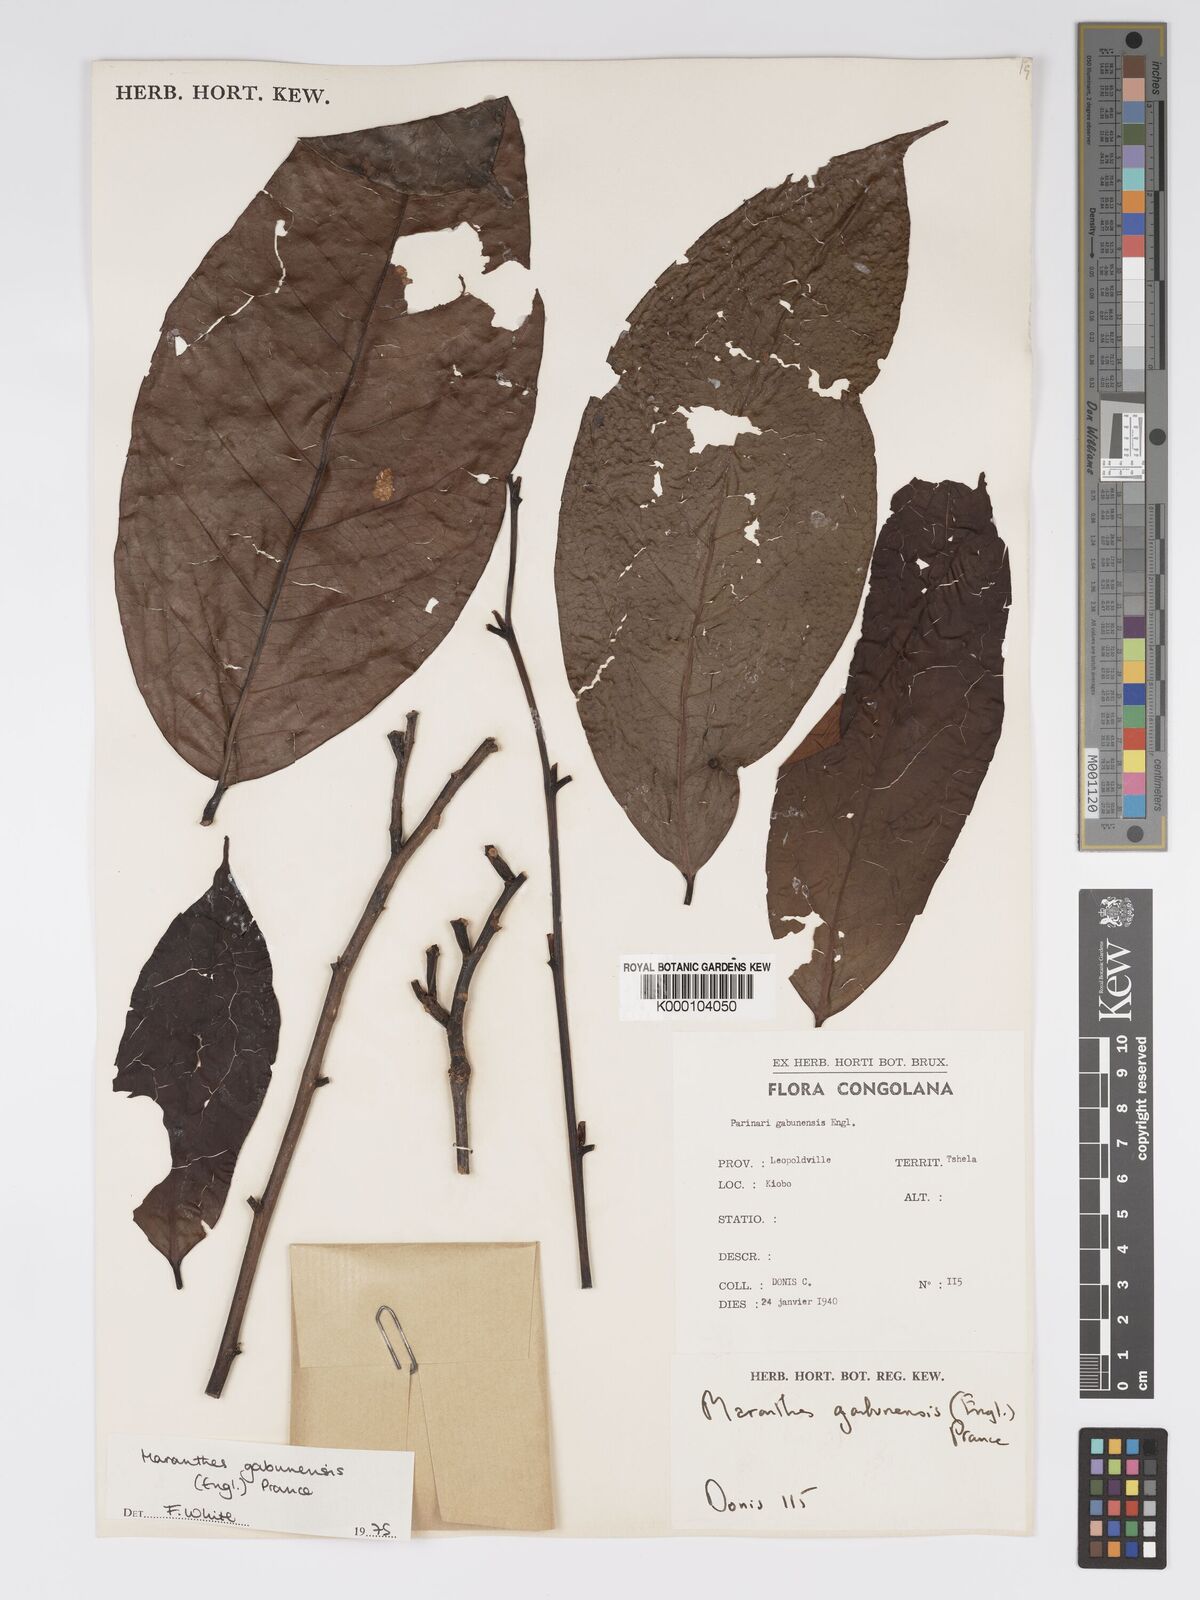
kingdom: Plantae
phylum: Tracheophyta
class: Magnoliopsida
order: Malpighiales
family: Chrysobalanaceae
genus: Maranthes
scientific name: Maranthes gabunensis
